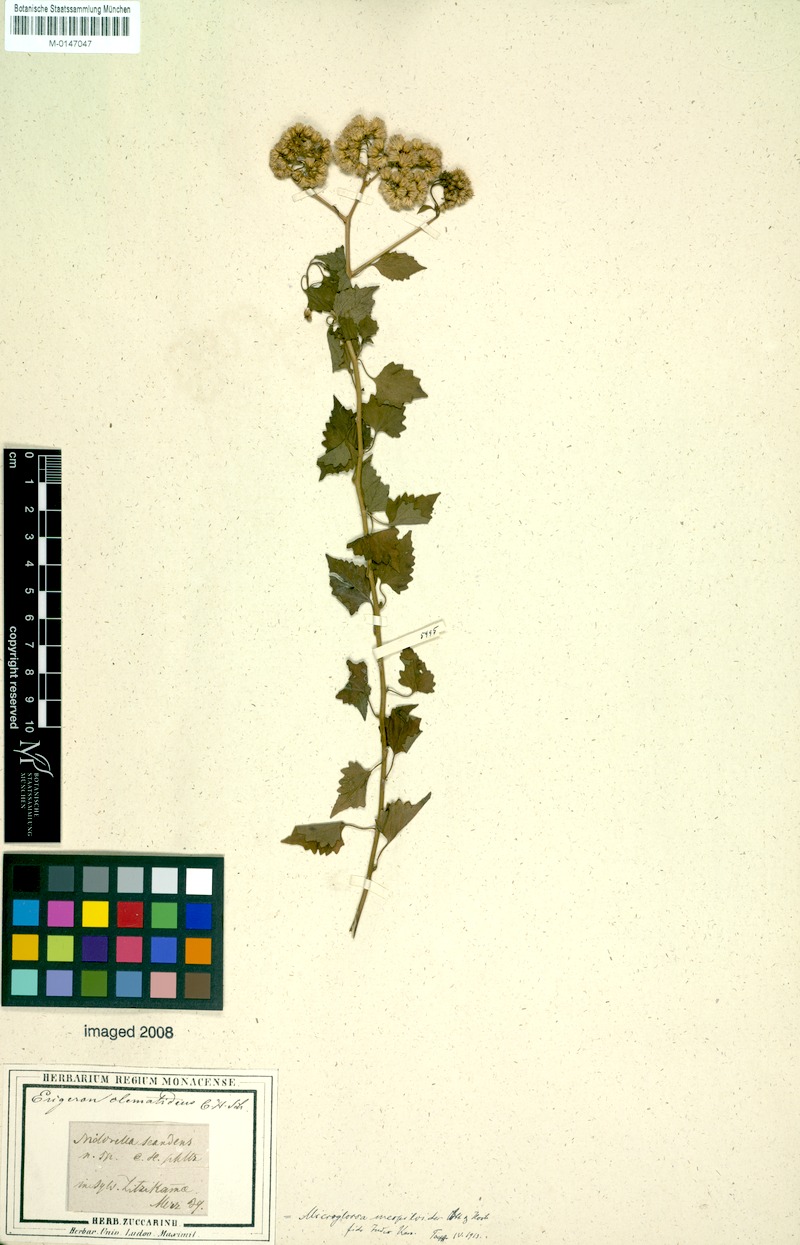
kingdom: Plantae
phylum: Tracheophyta
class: Magnoliopsida
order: Asterales
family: Asteraceae
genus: Microglossa
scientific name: Microglossa mespilifolia
